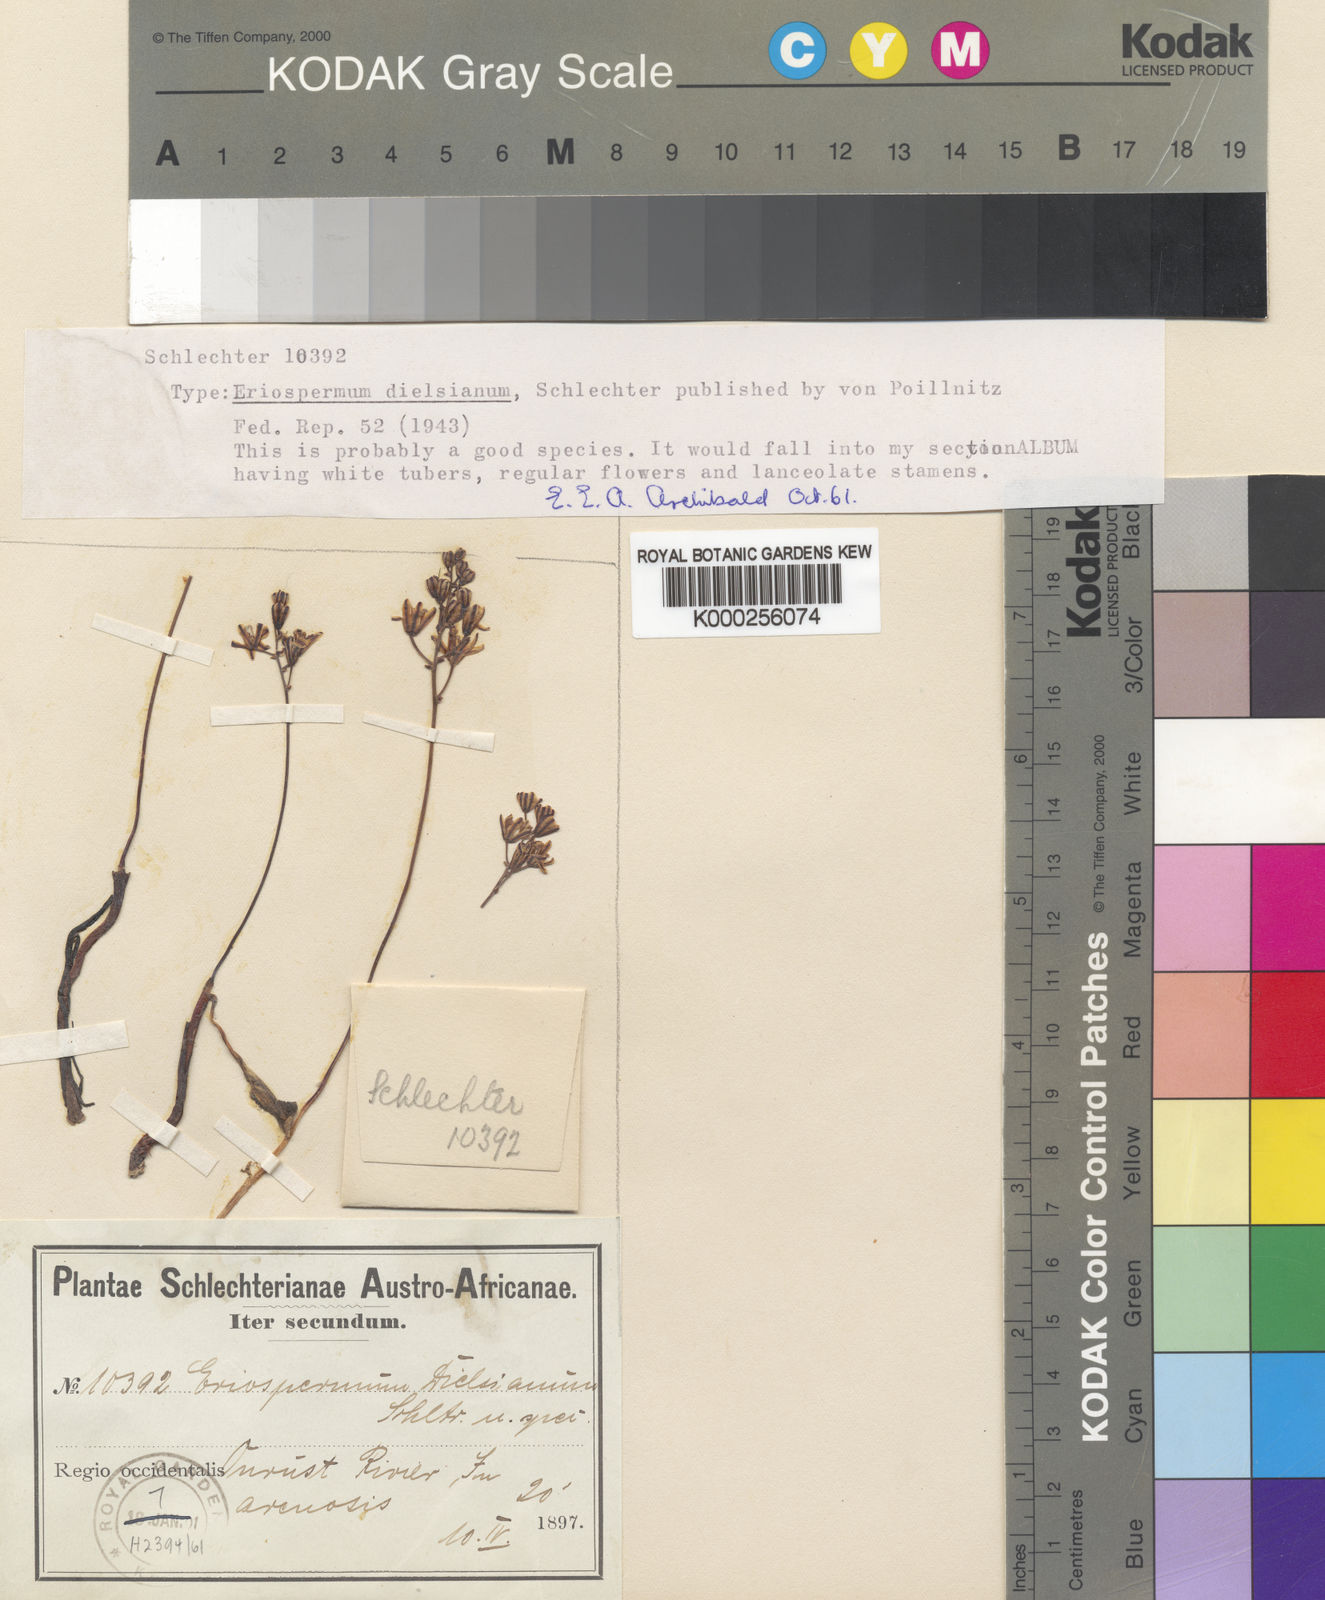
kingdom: Plantae
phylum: Tracheophyta
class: Liliopsida
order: Asparagales
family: Asparagaceae
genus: Eriospermum
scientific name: Eriospermum dielsianum
